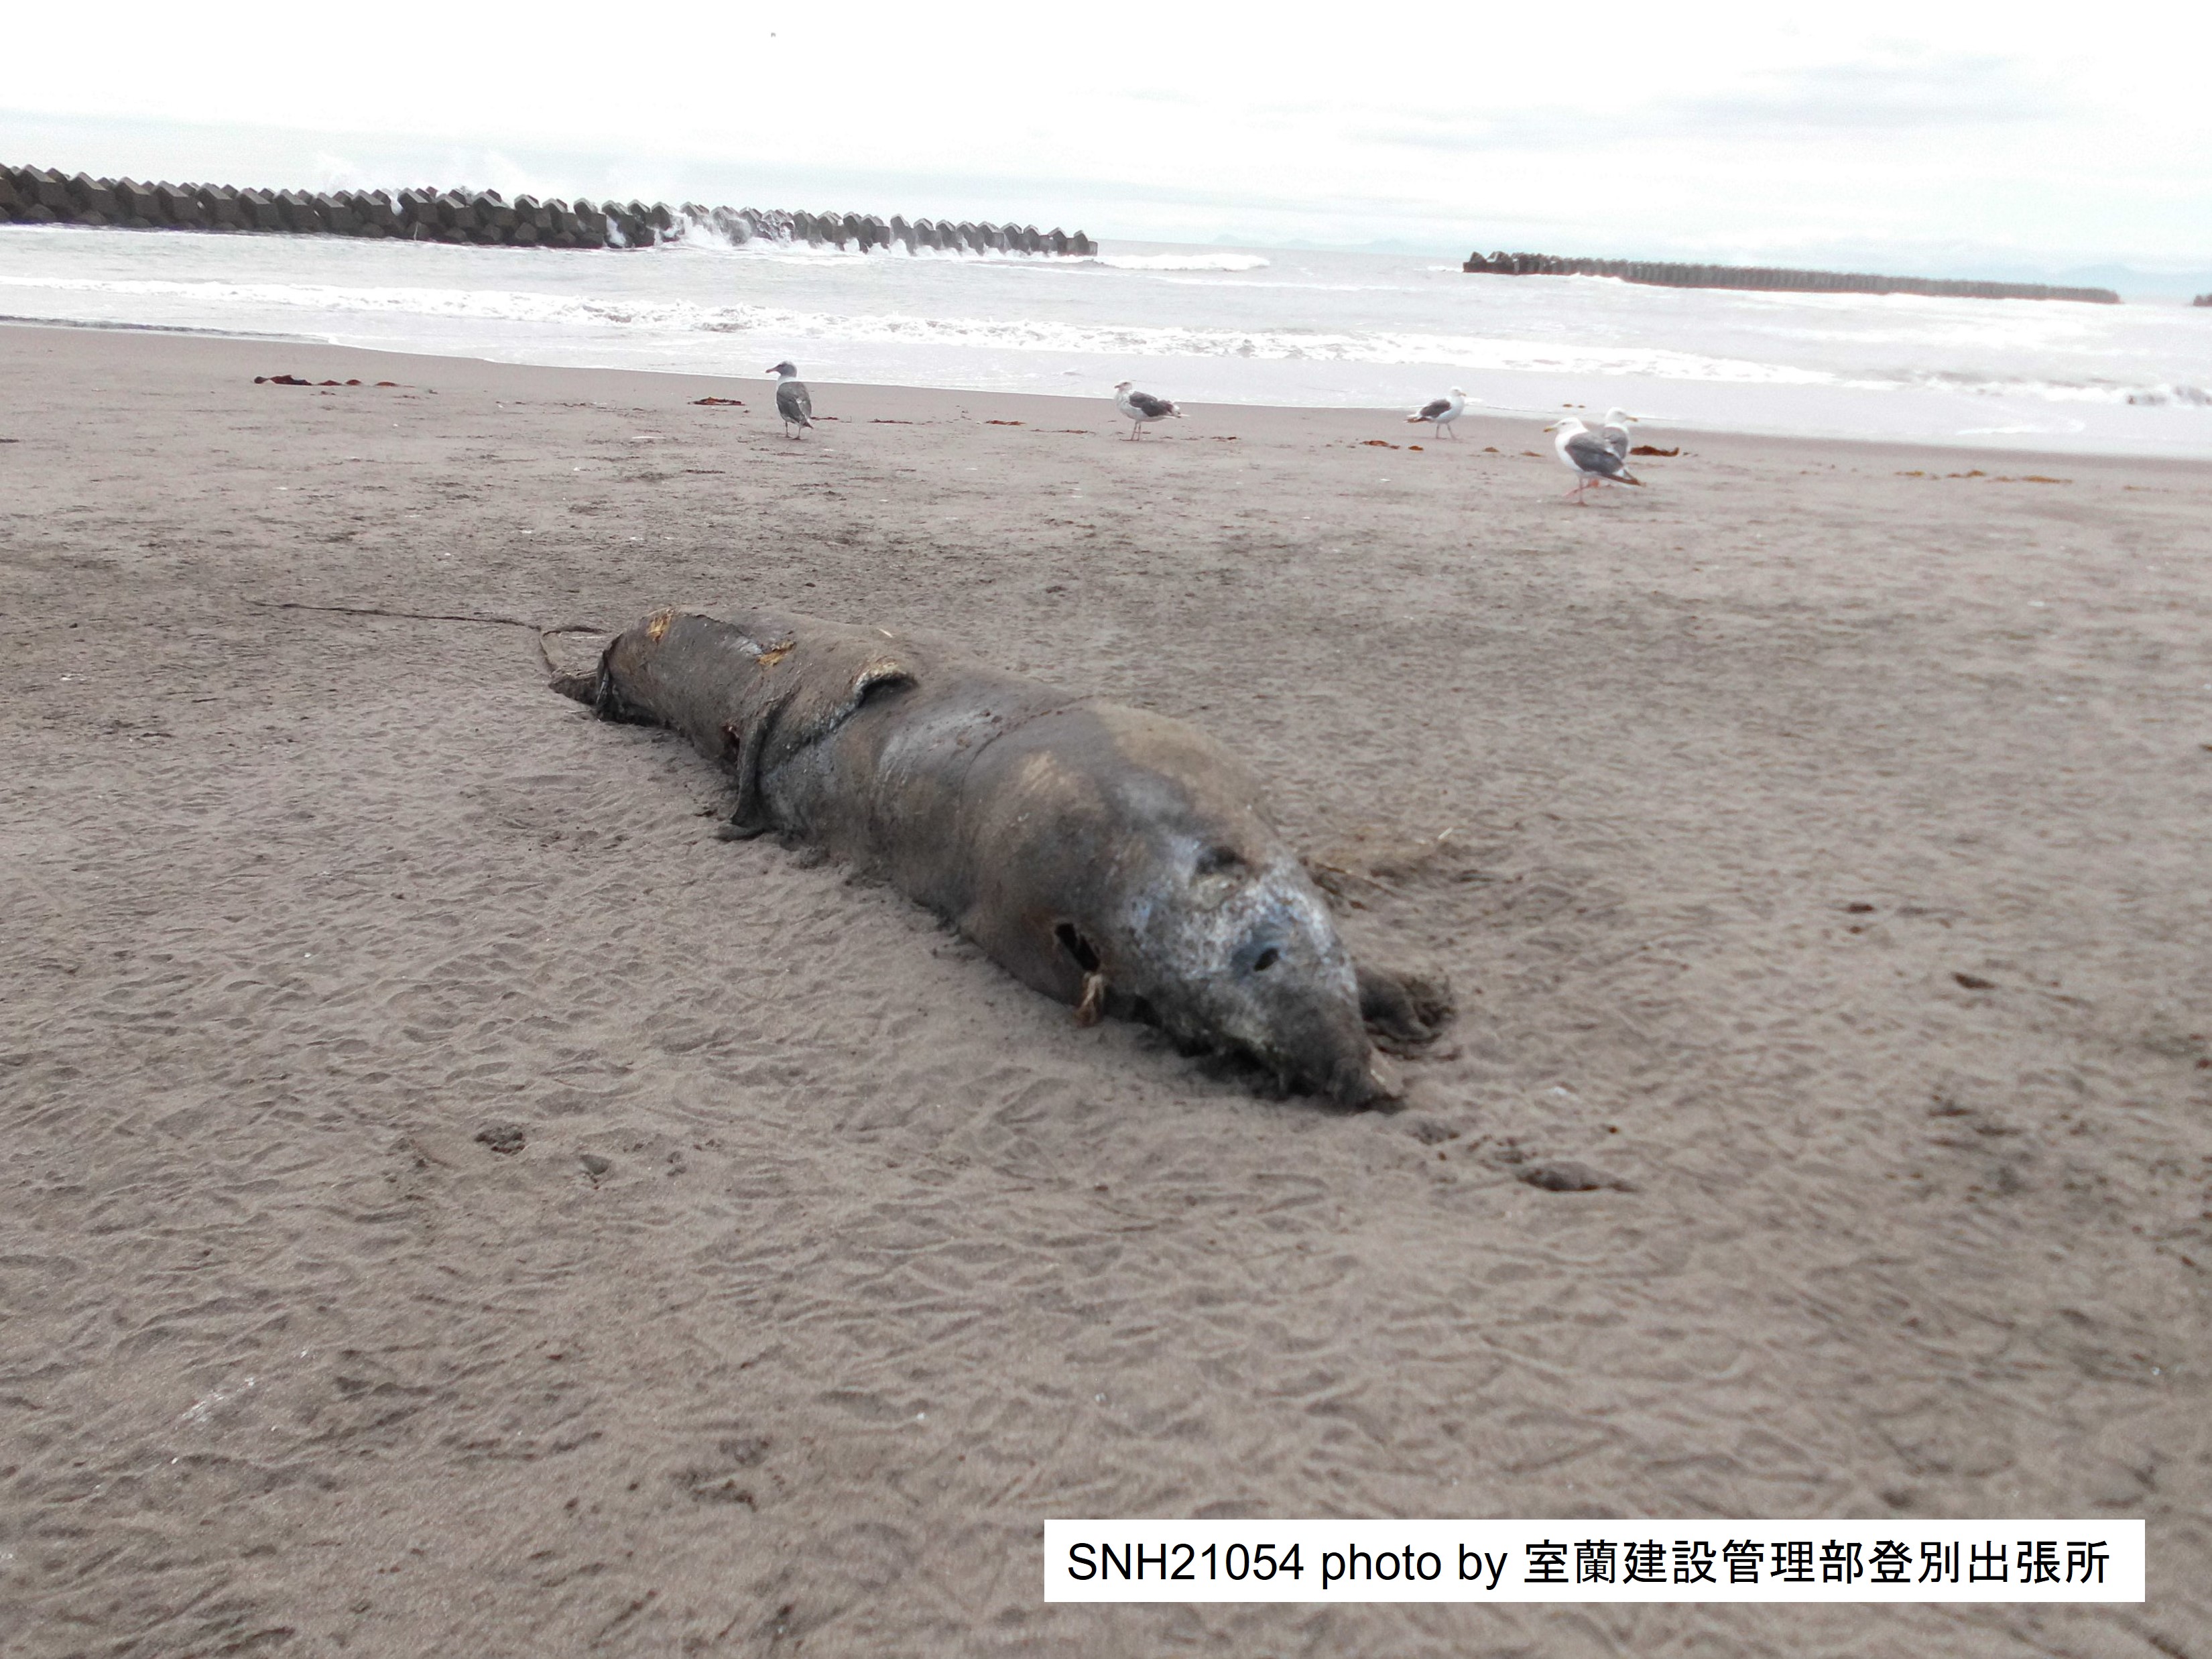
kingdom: Animalia
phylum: Chordata
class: Mammalia
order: Cetacea
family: Delphinidae
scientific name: Delphinidae
